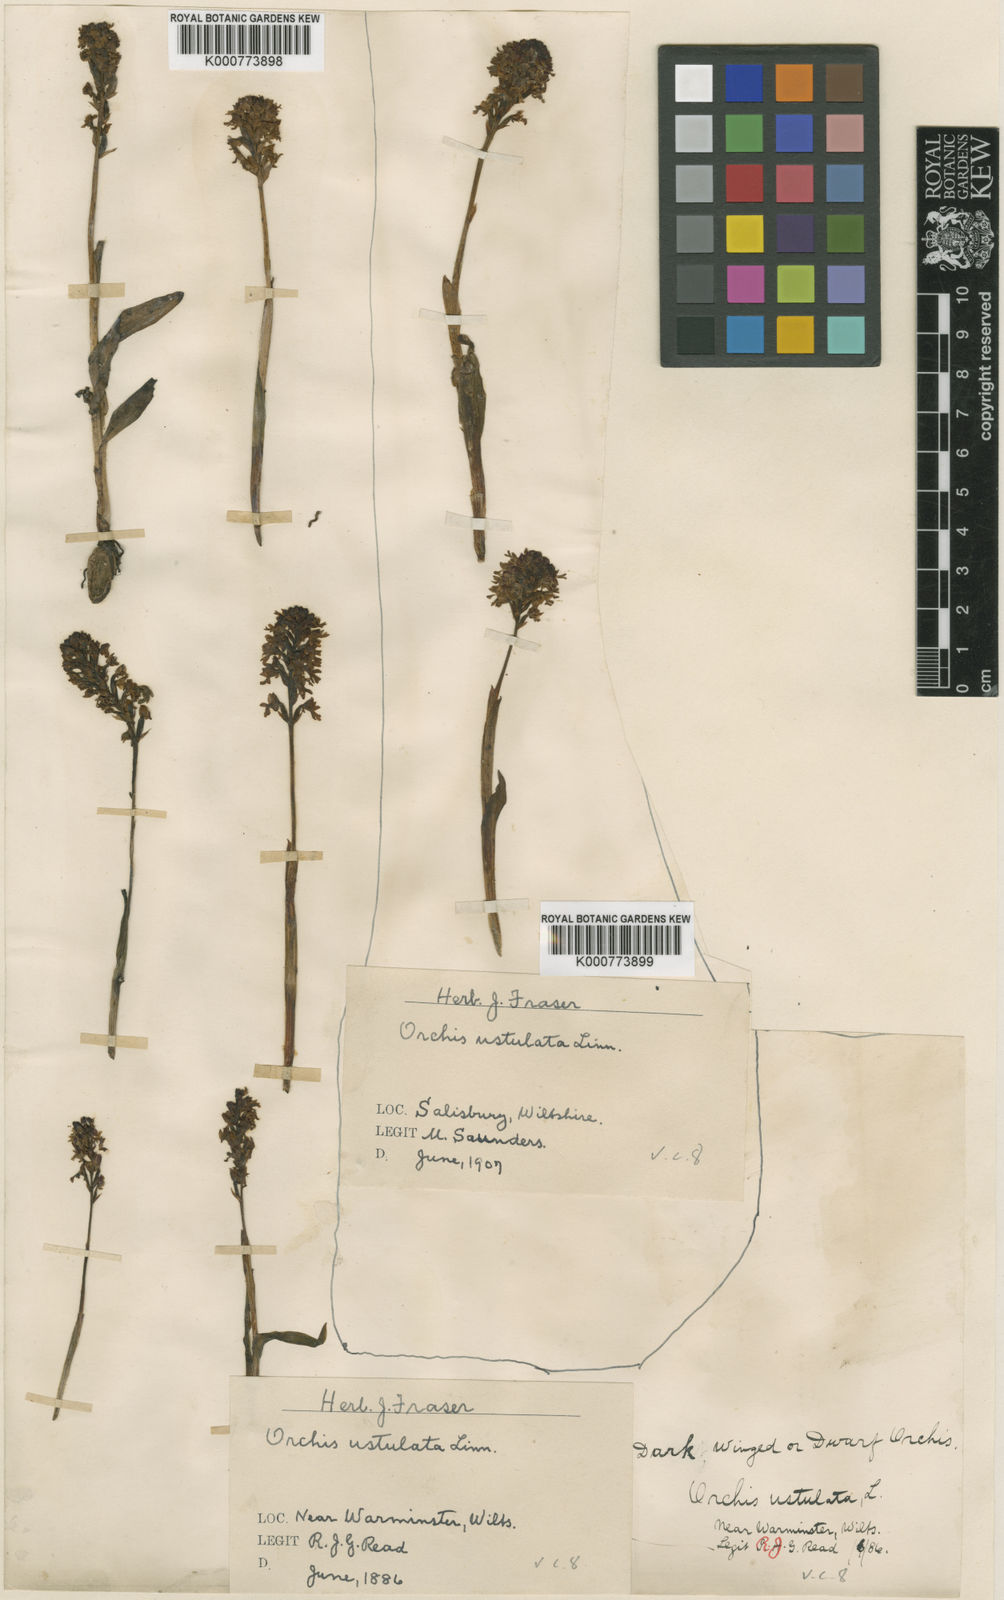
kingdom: Plantae
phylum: Tracheophyta
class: Liliopsida
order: Asparagales
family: Orchidaceae
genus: Neotinea
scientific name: Neotinea ustulata
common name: Burnt orchid
